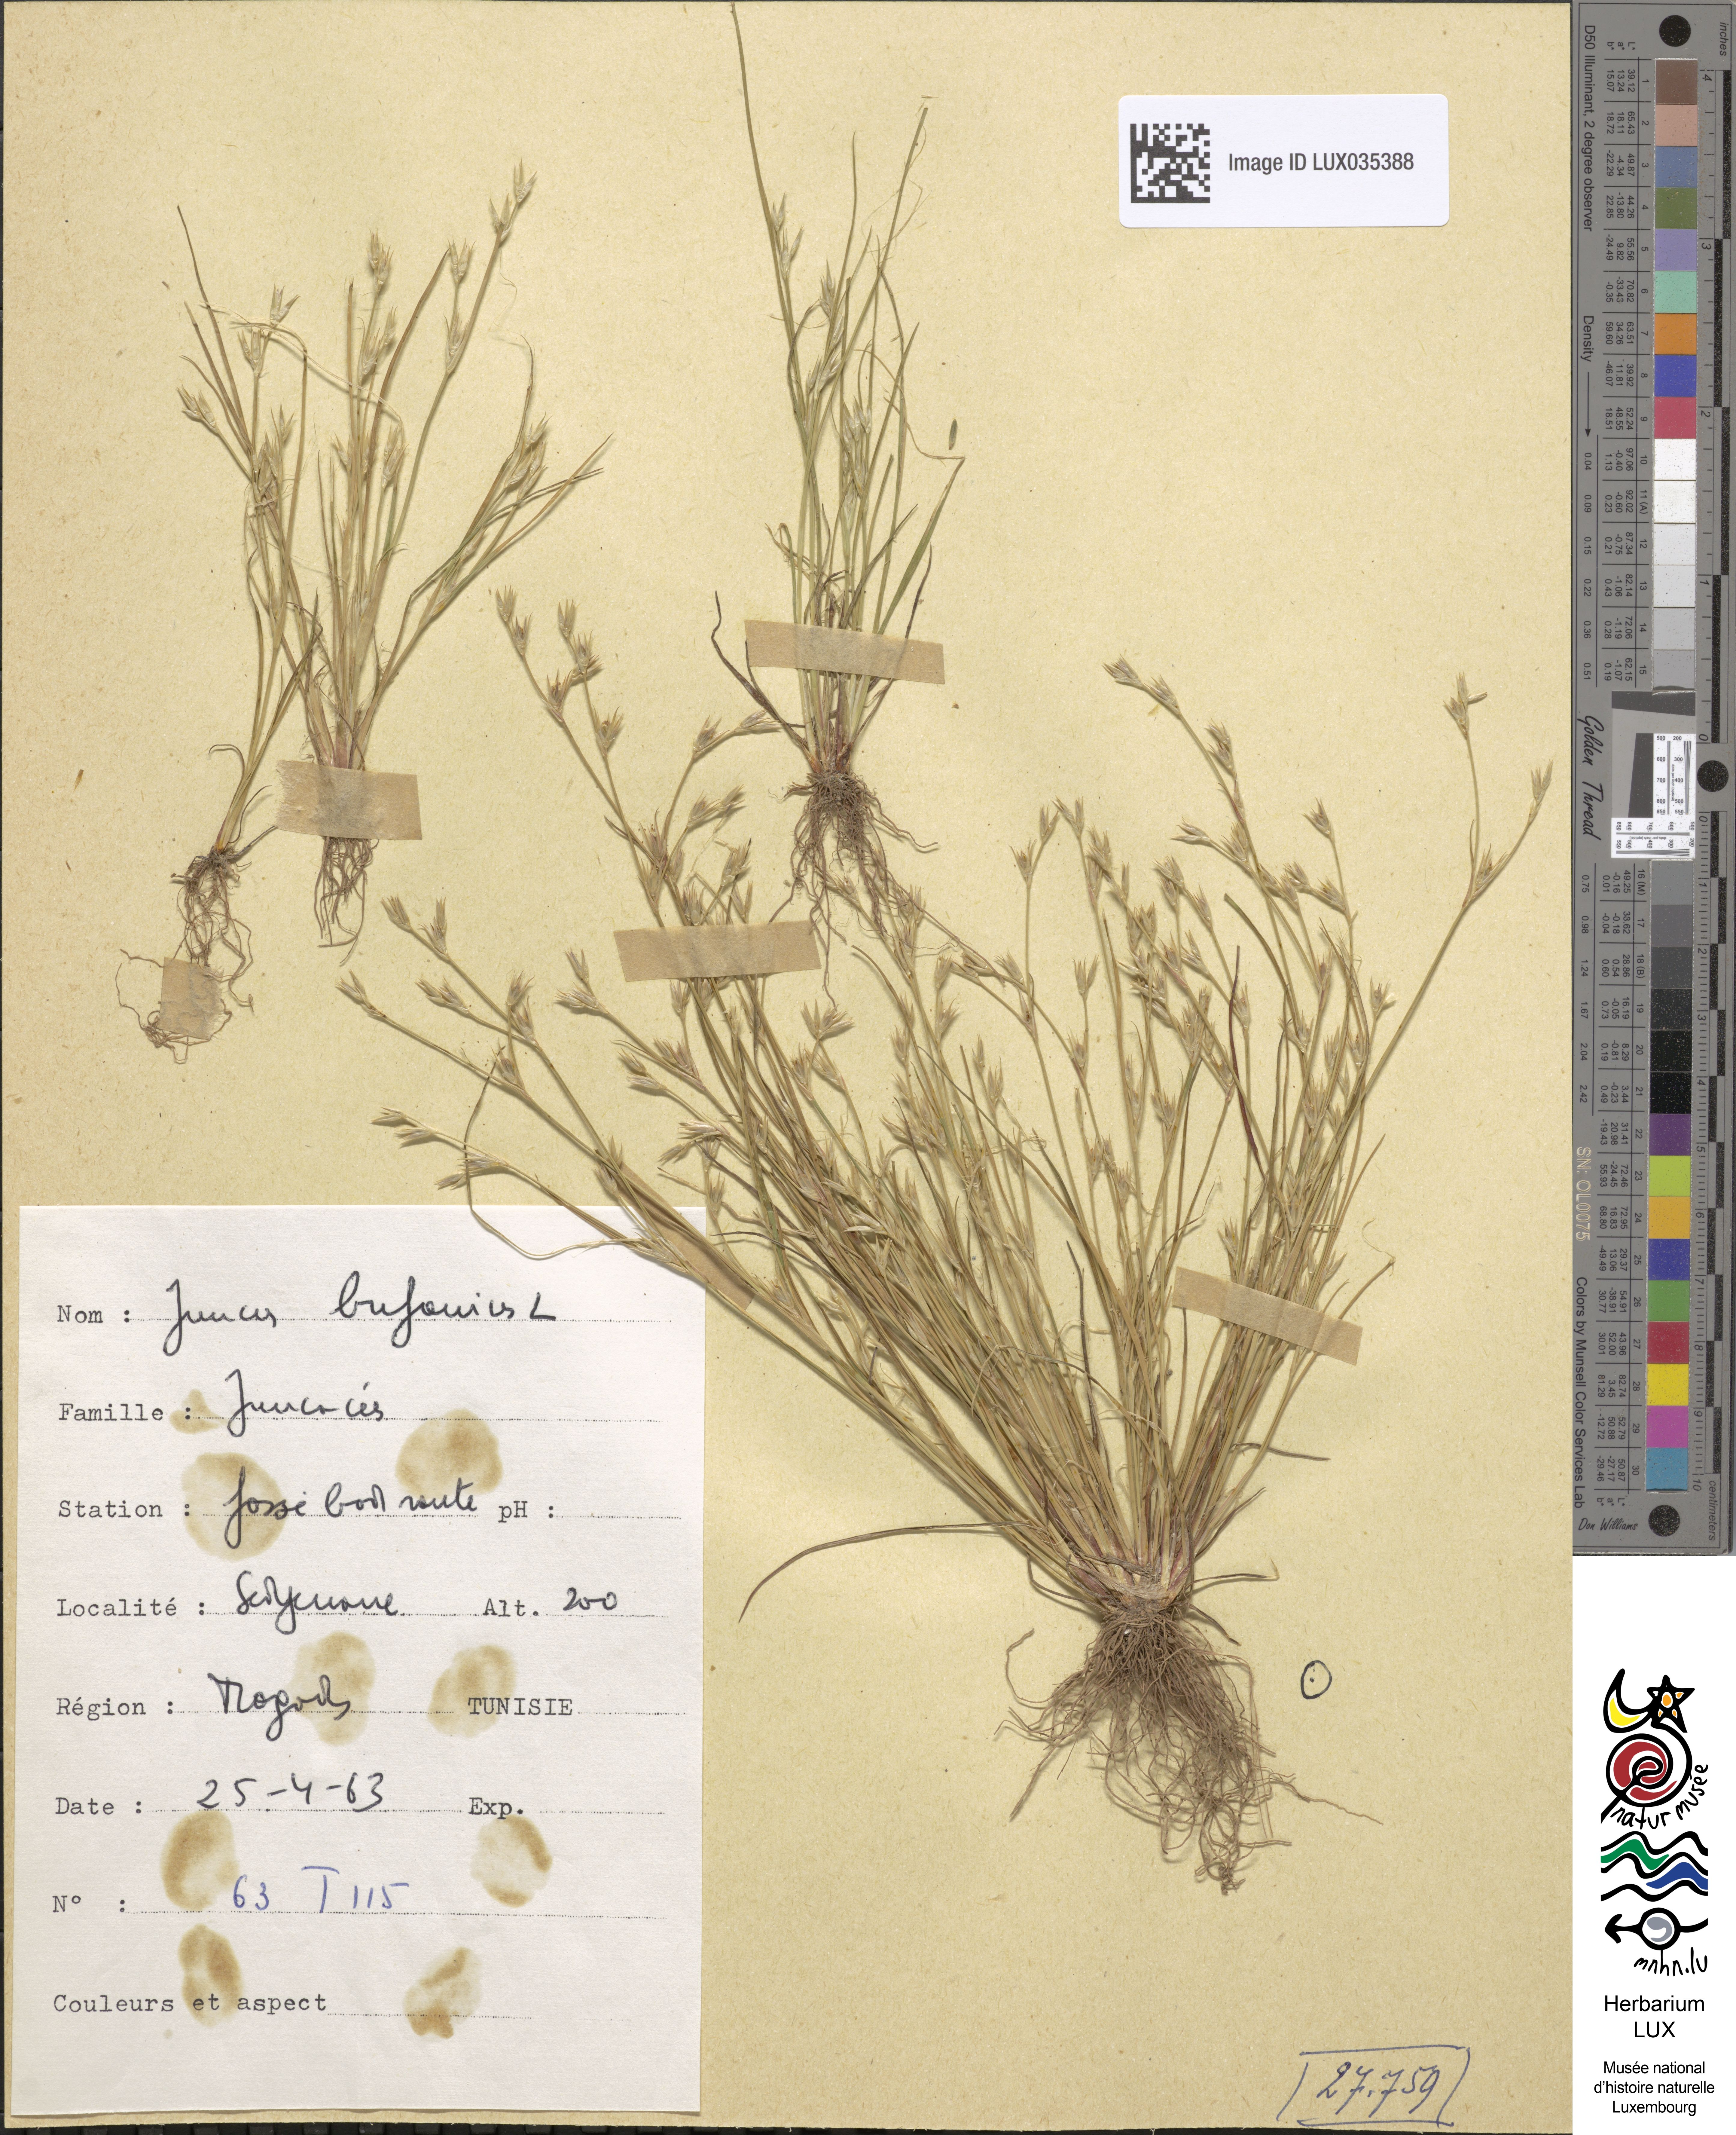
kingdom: Plantae
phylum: Tracheophyta
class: Liliopsida
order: Poales
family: Juncaceae
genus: Juncus
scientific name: Juncus bufonius
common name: Toad rush
